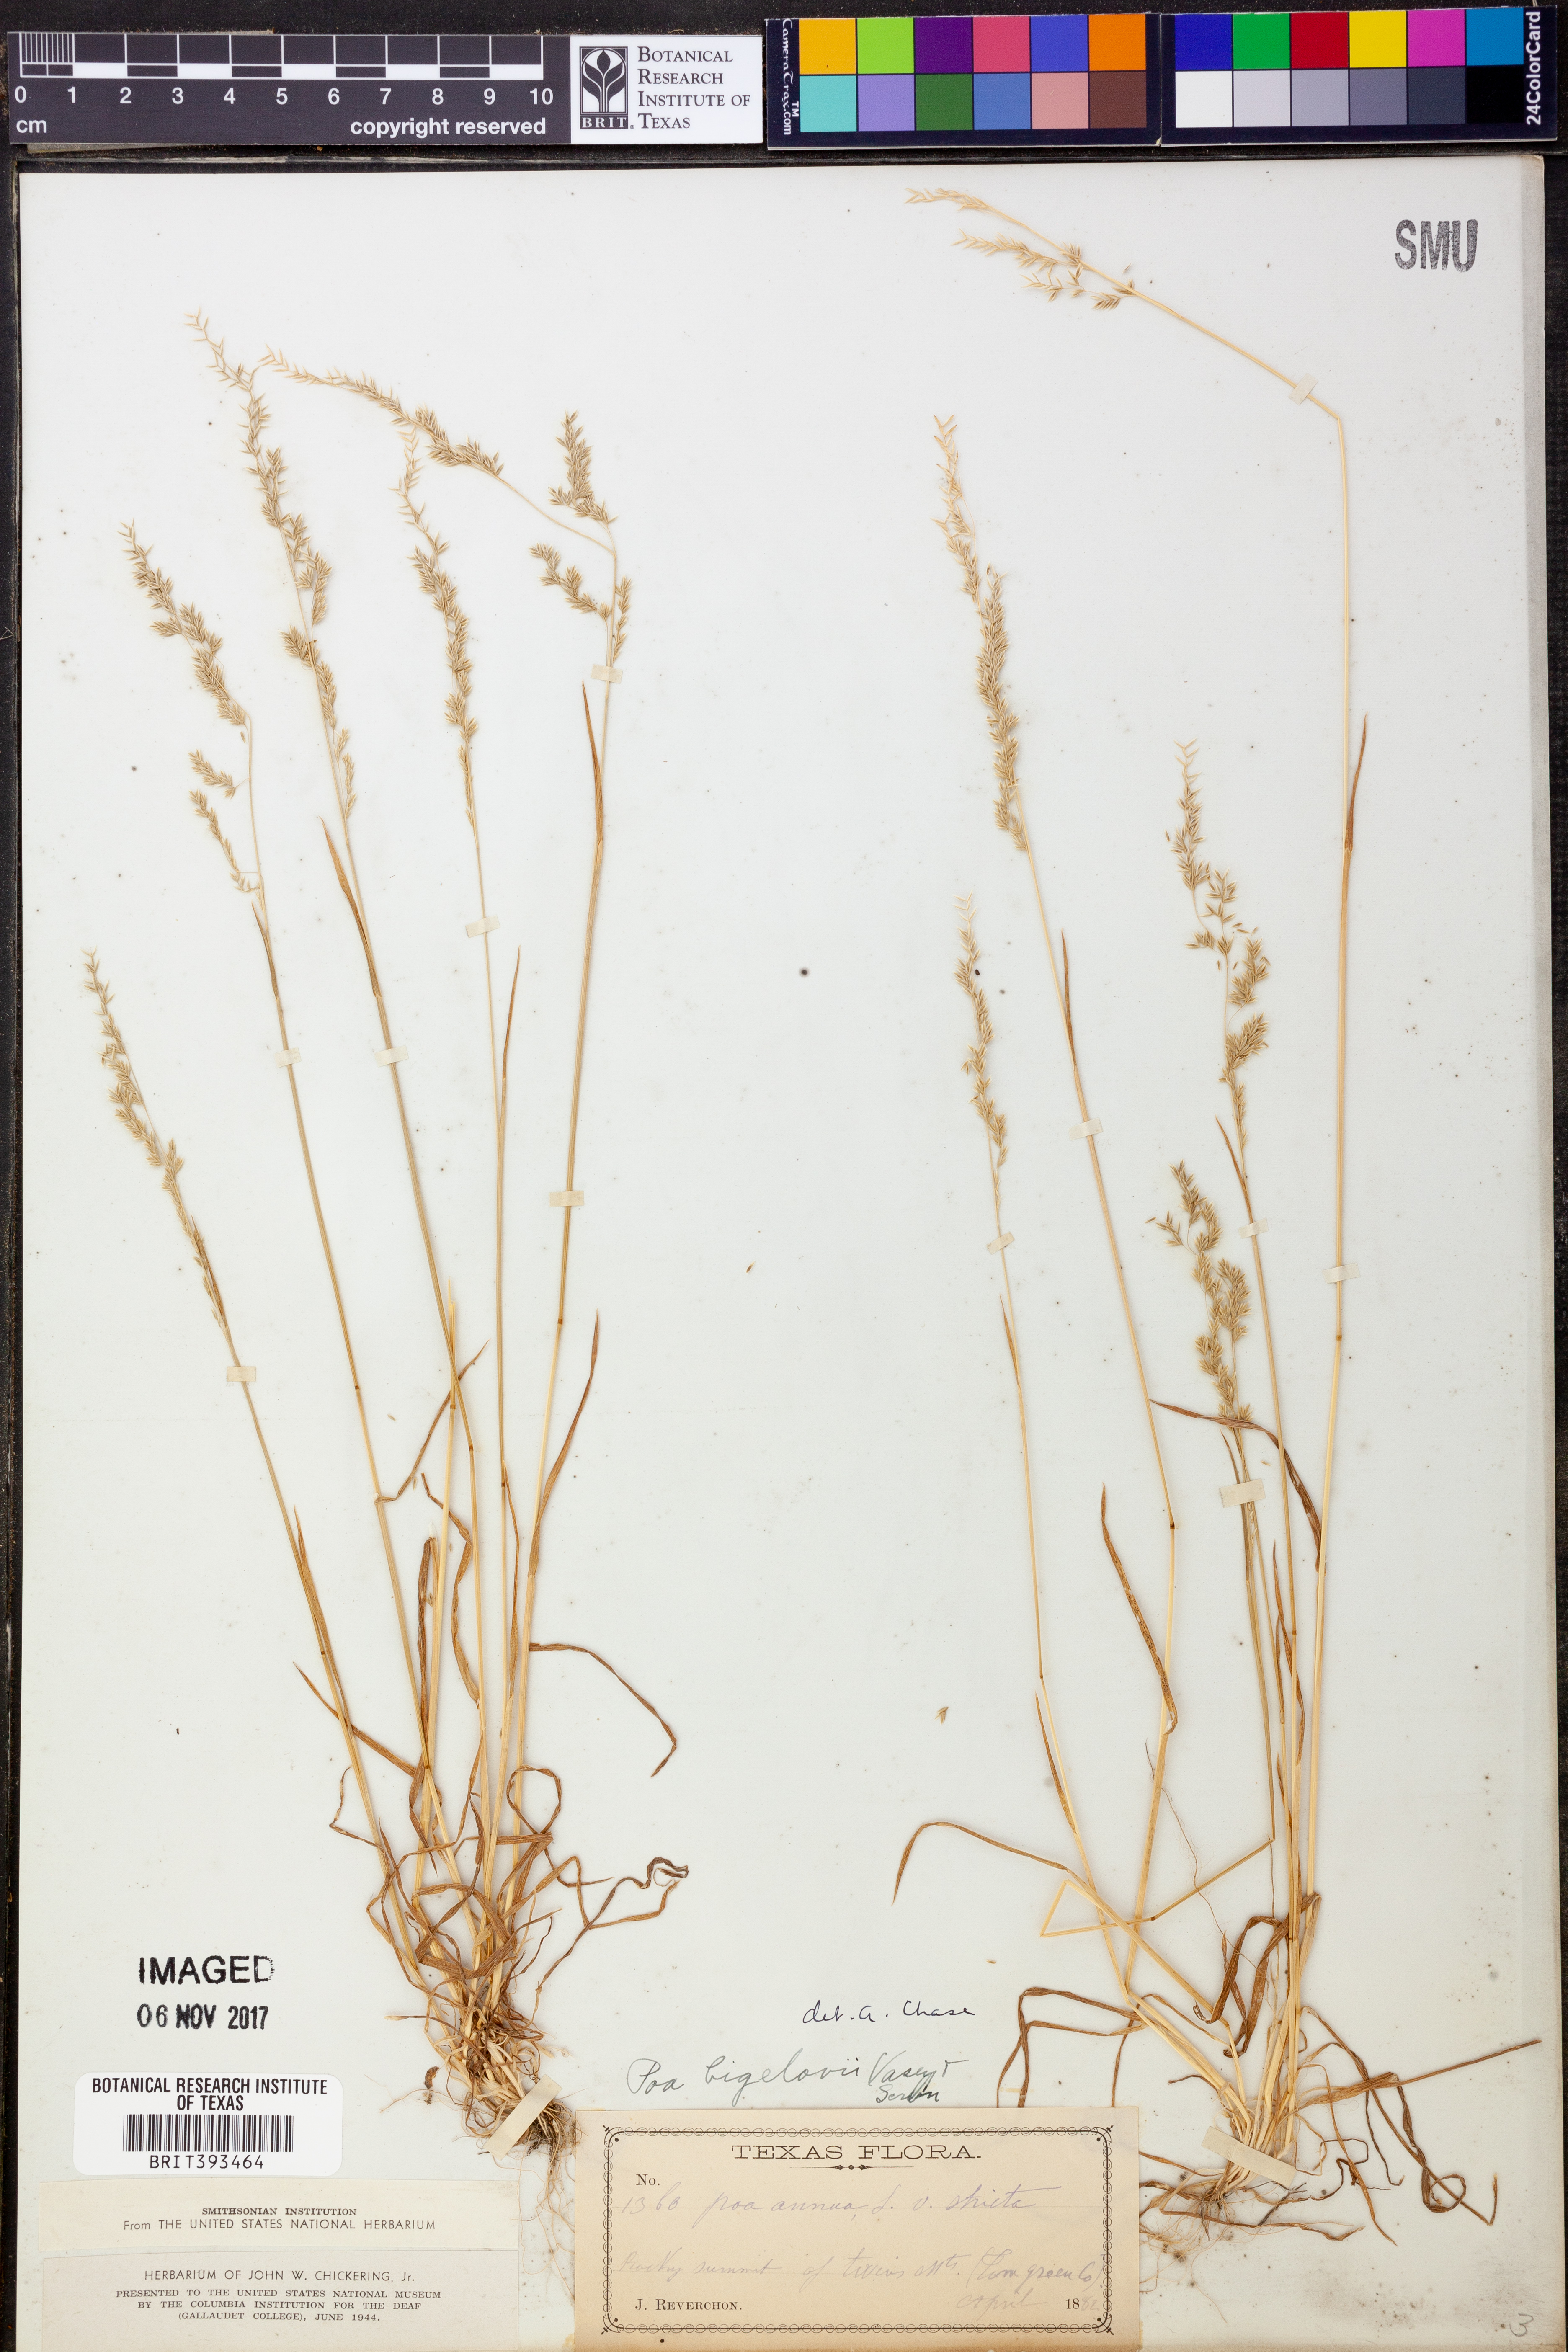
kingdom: Plantae
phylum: Tracheophyta
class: Liliopsida
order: Poales
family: Poaceae
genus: Poa
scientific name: Poa bigelovii
